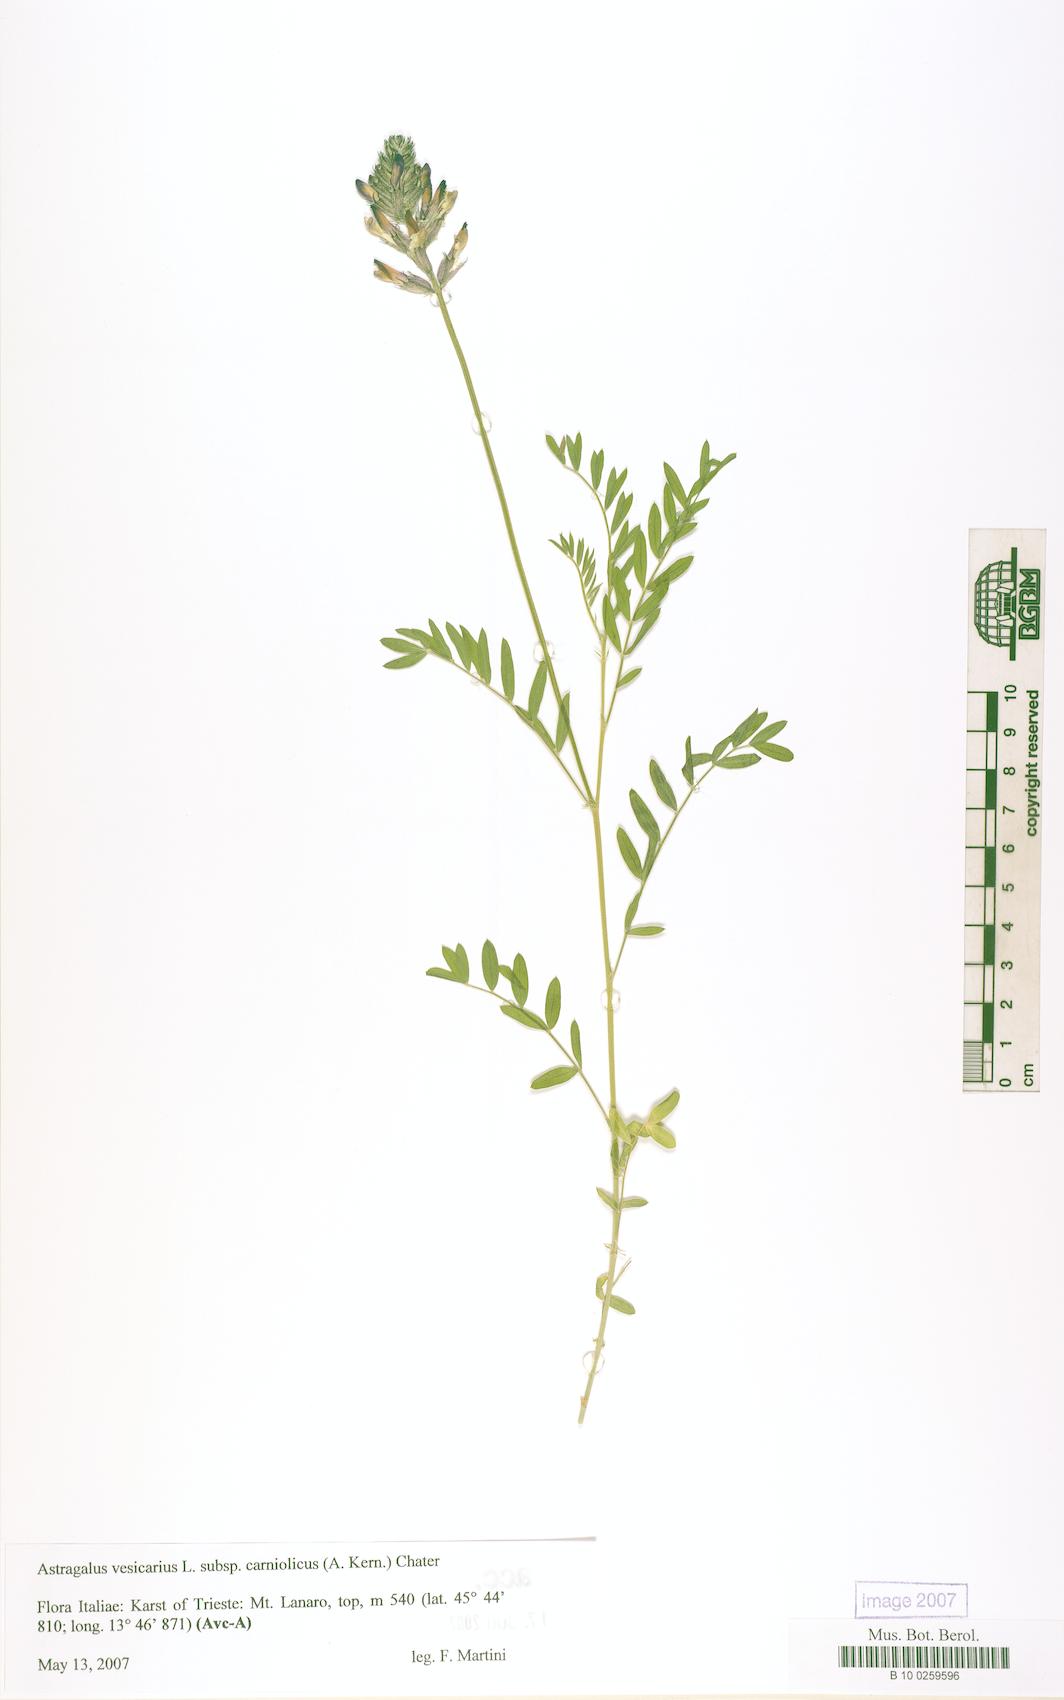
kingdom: Plantae
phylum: Tracheophyta
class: Magnoliopsida
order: Fabales
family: Fabaceae
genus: Astragalus
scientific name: Astragalus vesicarius
